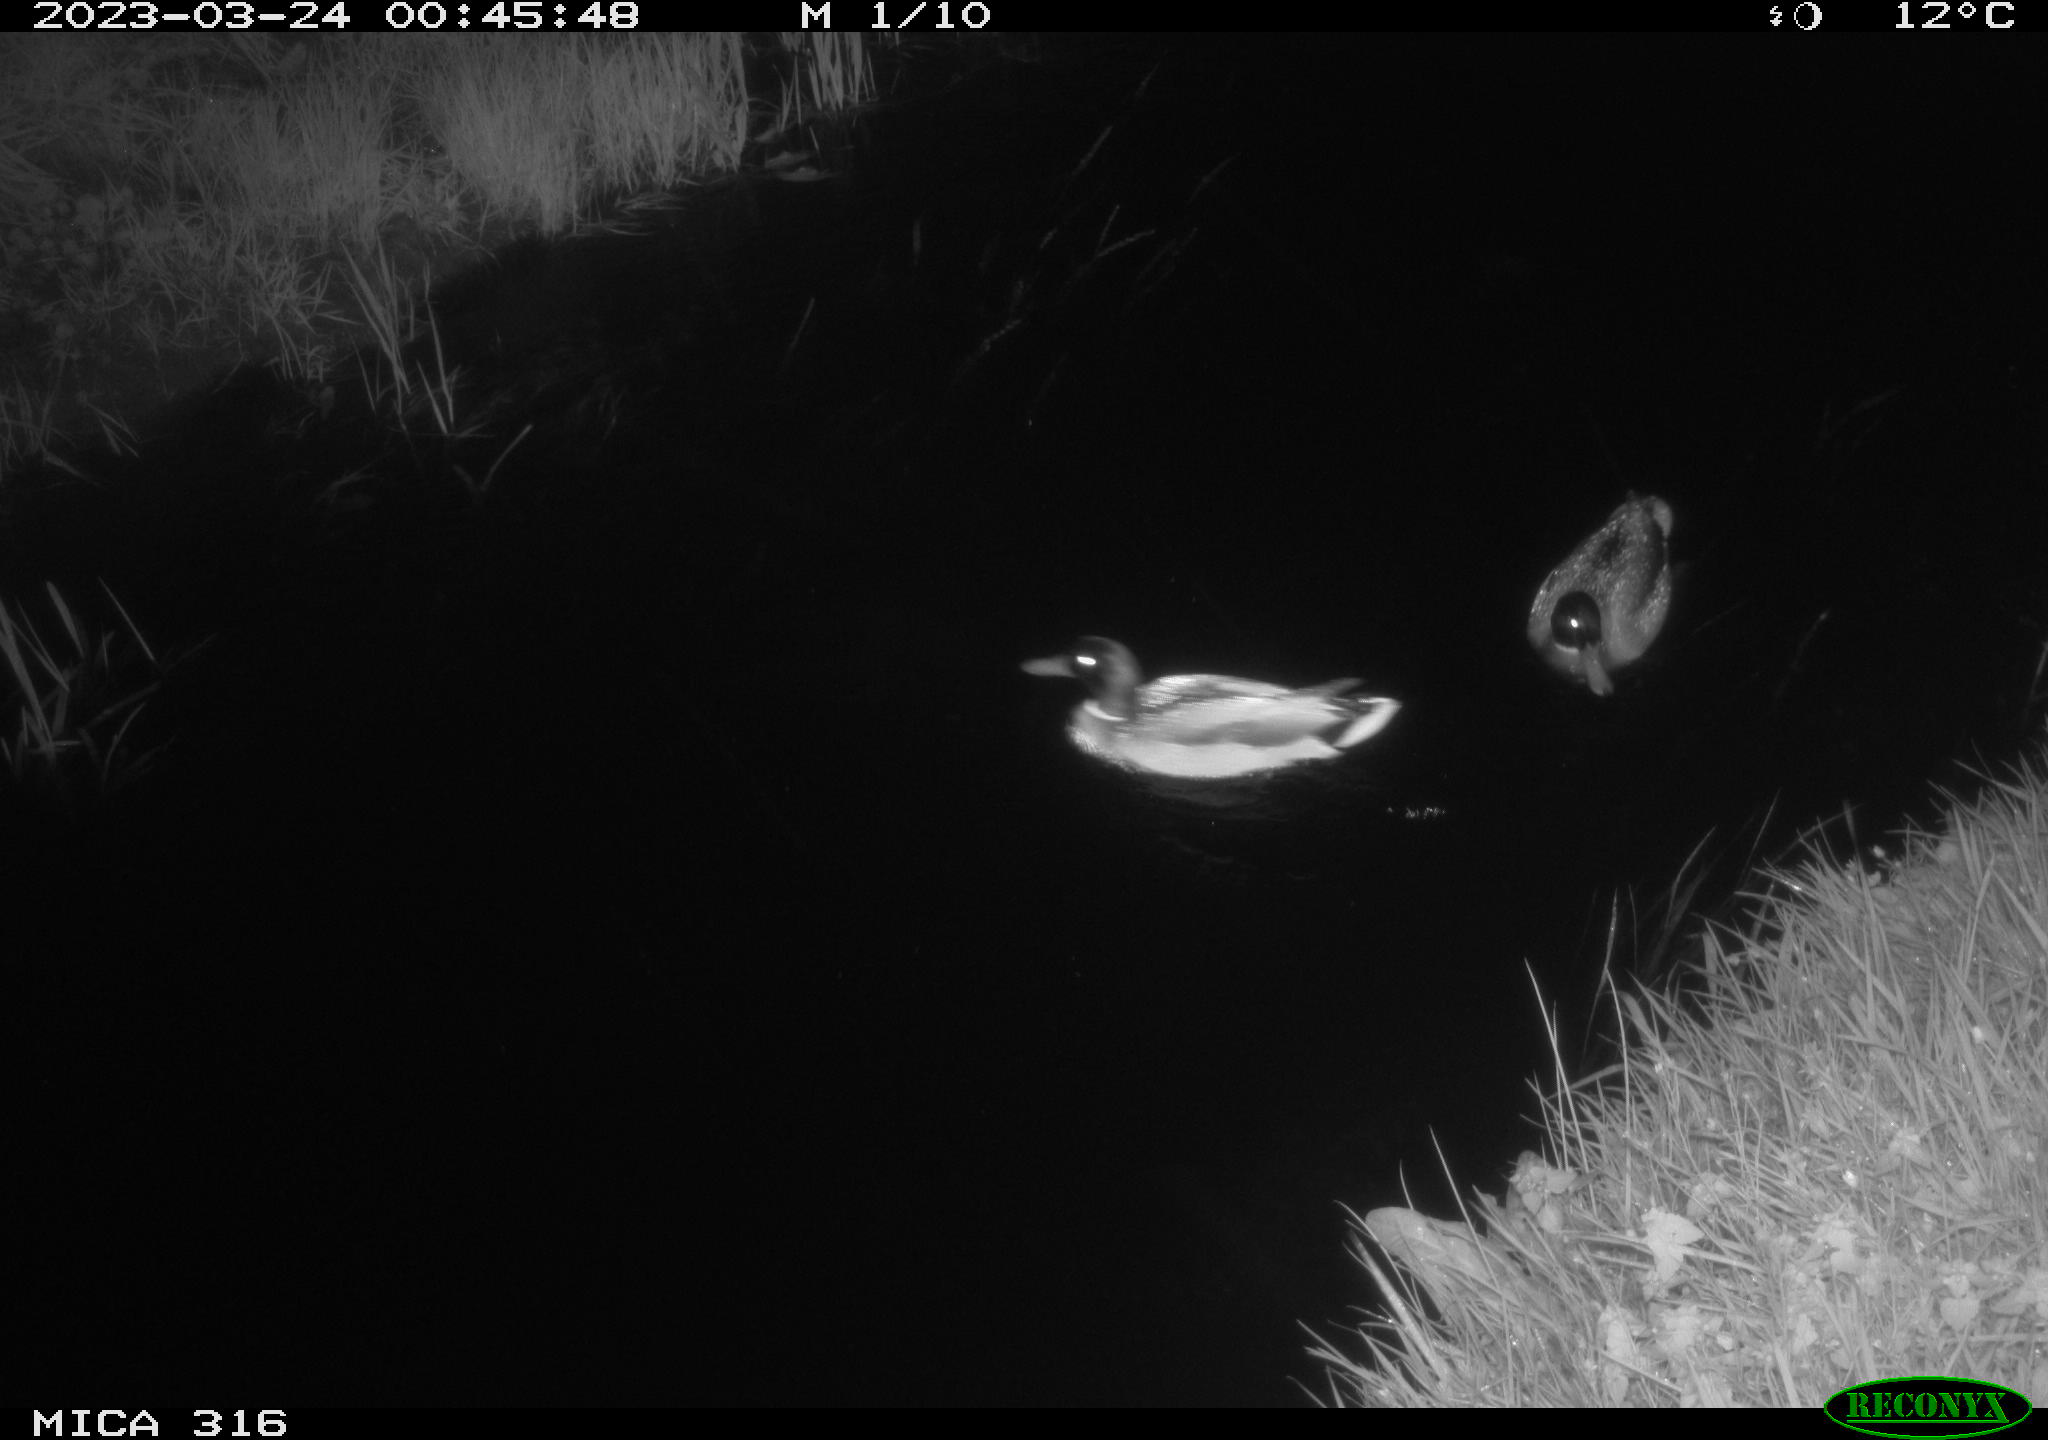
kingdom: Animalia
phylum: Chordata
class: Aves
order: Anseriformes
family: Anatidae
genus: Anas
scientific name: Anas
